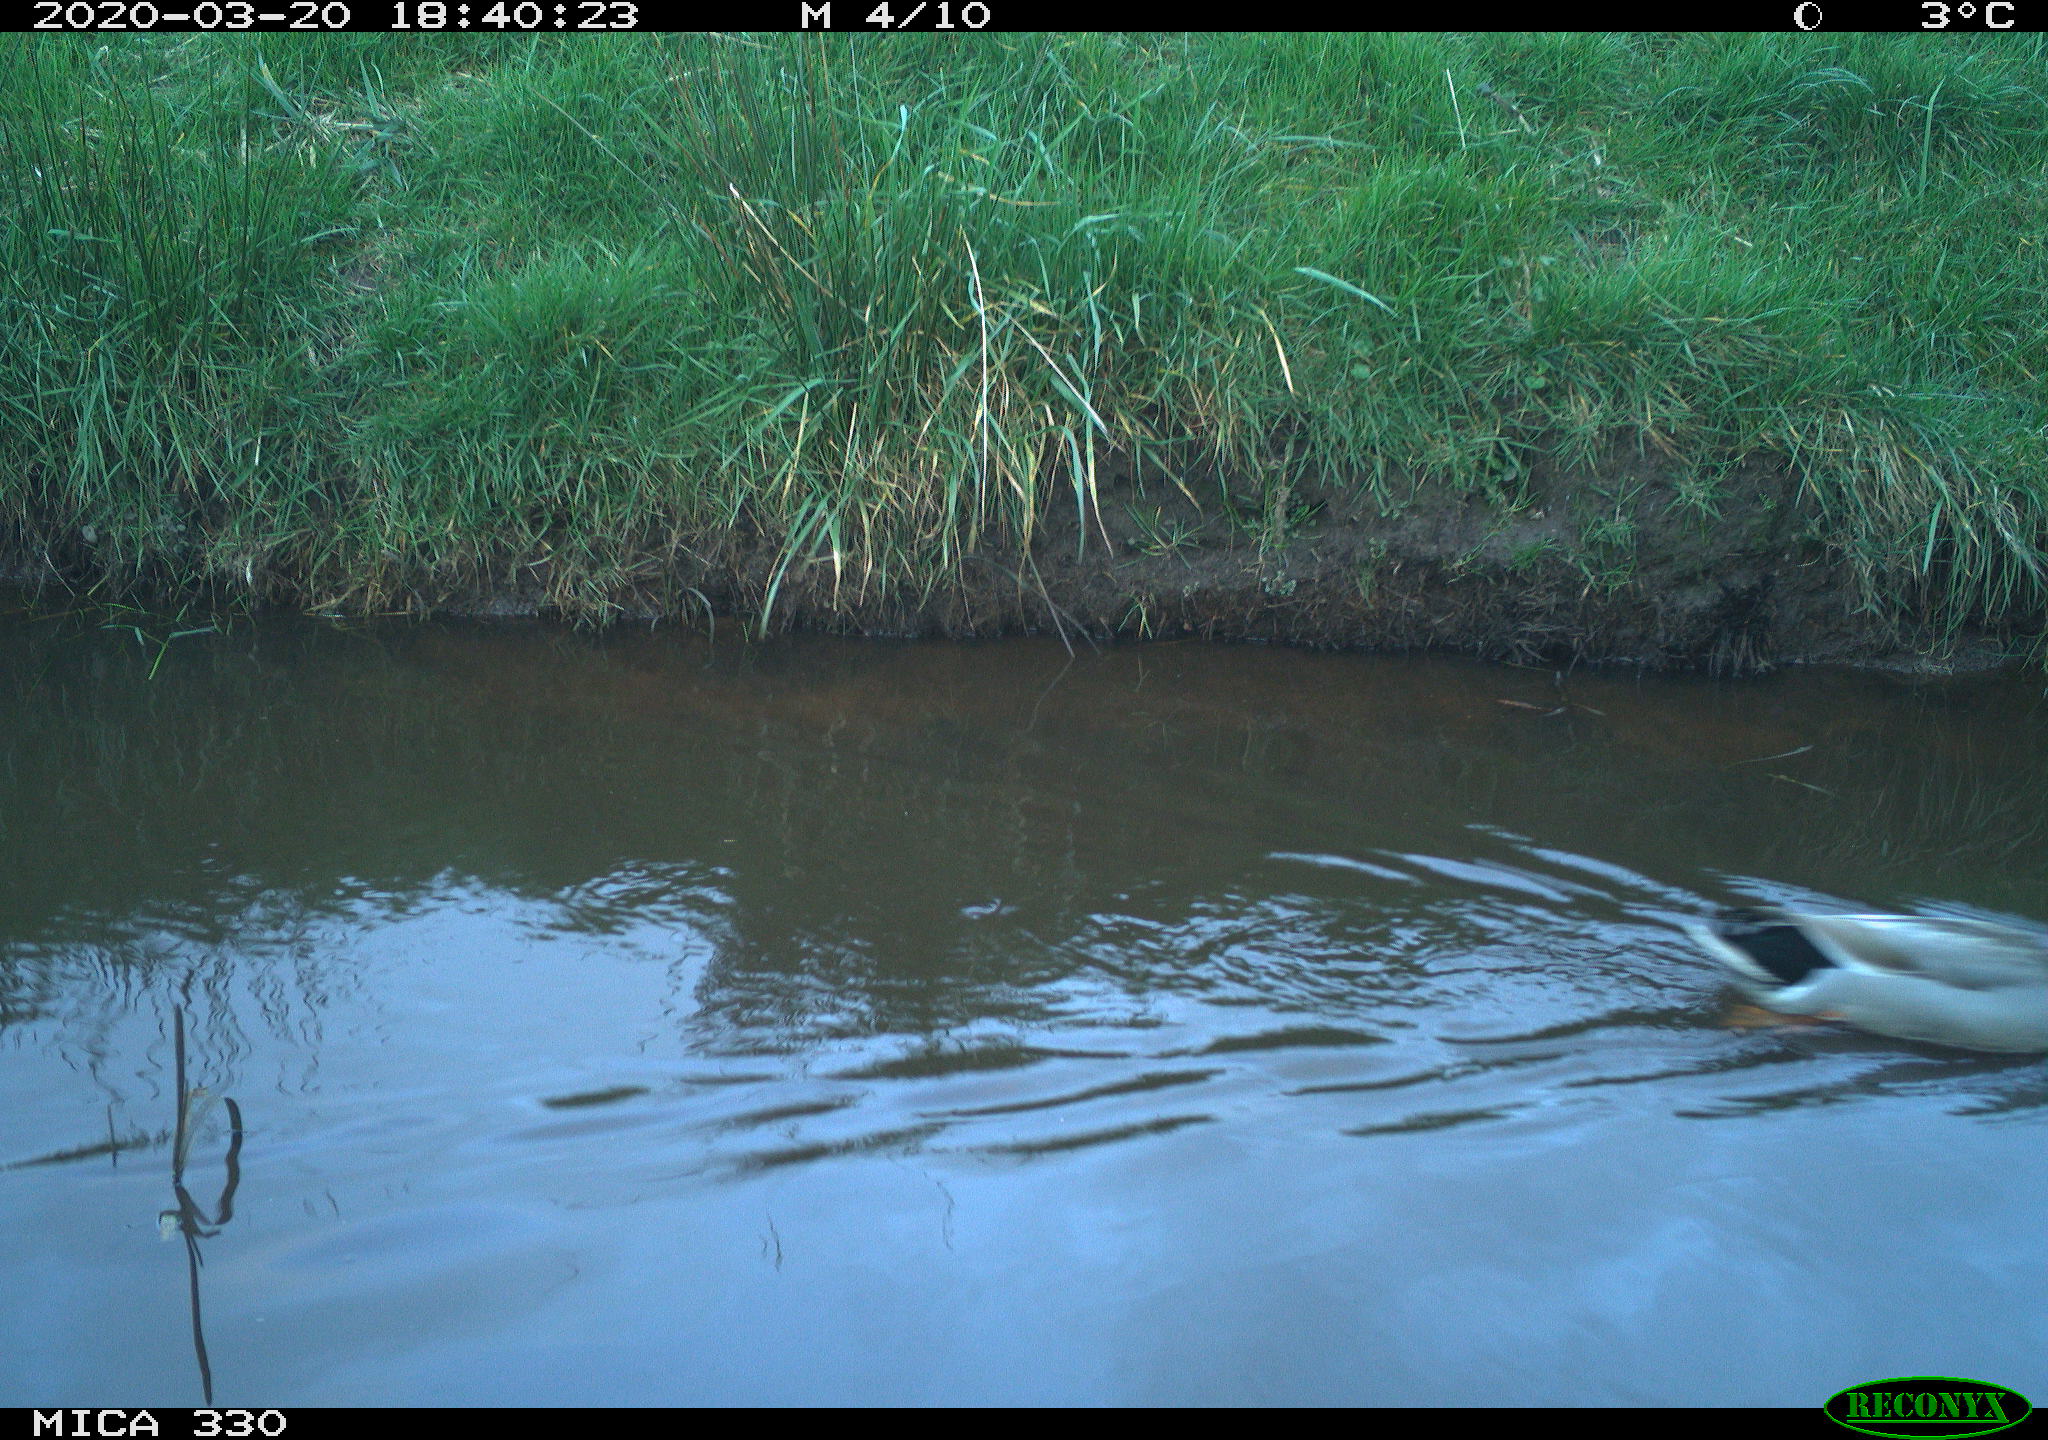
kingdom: Animalia
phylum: Chordata
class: Aves
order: Anseriformes
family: Anatidae
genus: Anas
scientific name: Anas platyrhynchos
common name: Mallard
